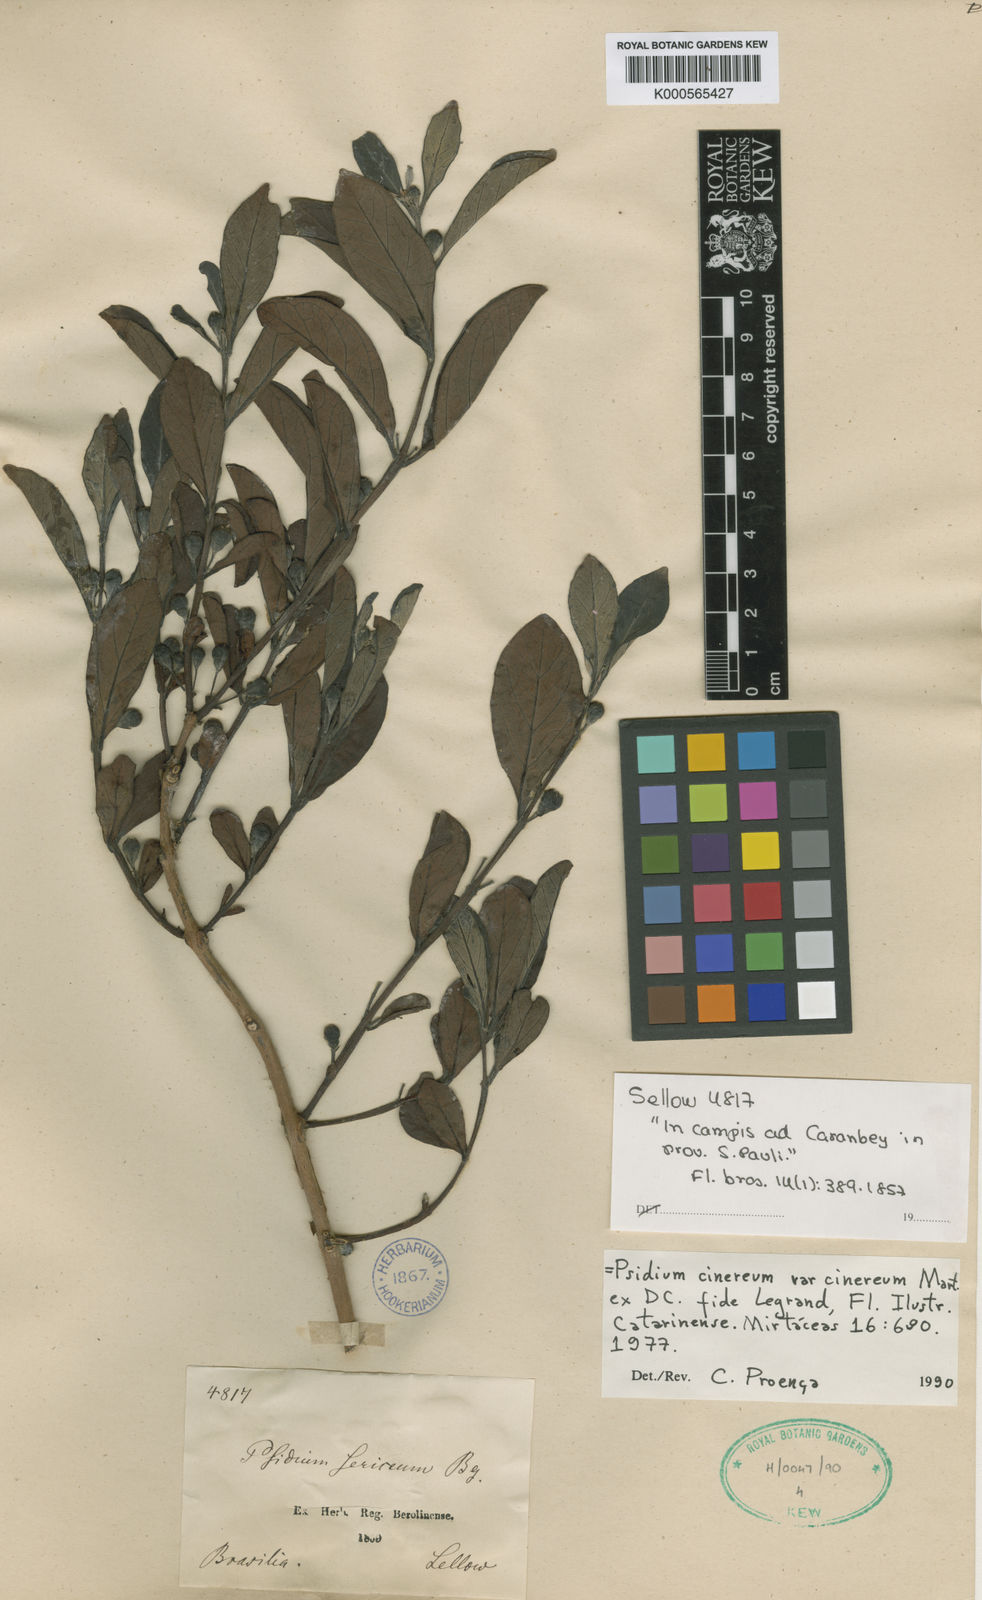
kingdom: Plantae
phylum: Tracheophyta
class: Magnoliopsida
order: Myrtales
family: Myrtaceae
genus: Psidium
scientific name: Psidium grandifolium
